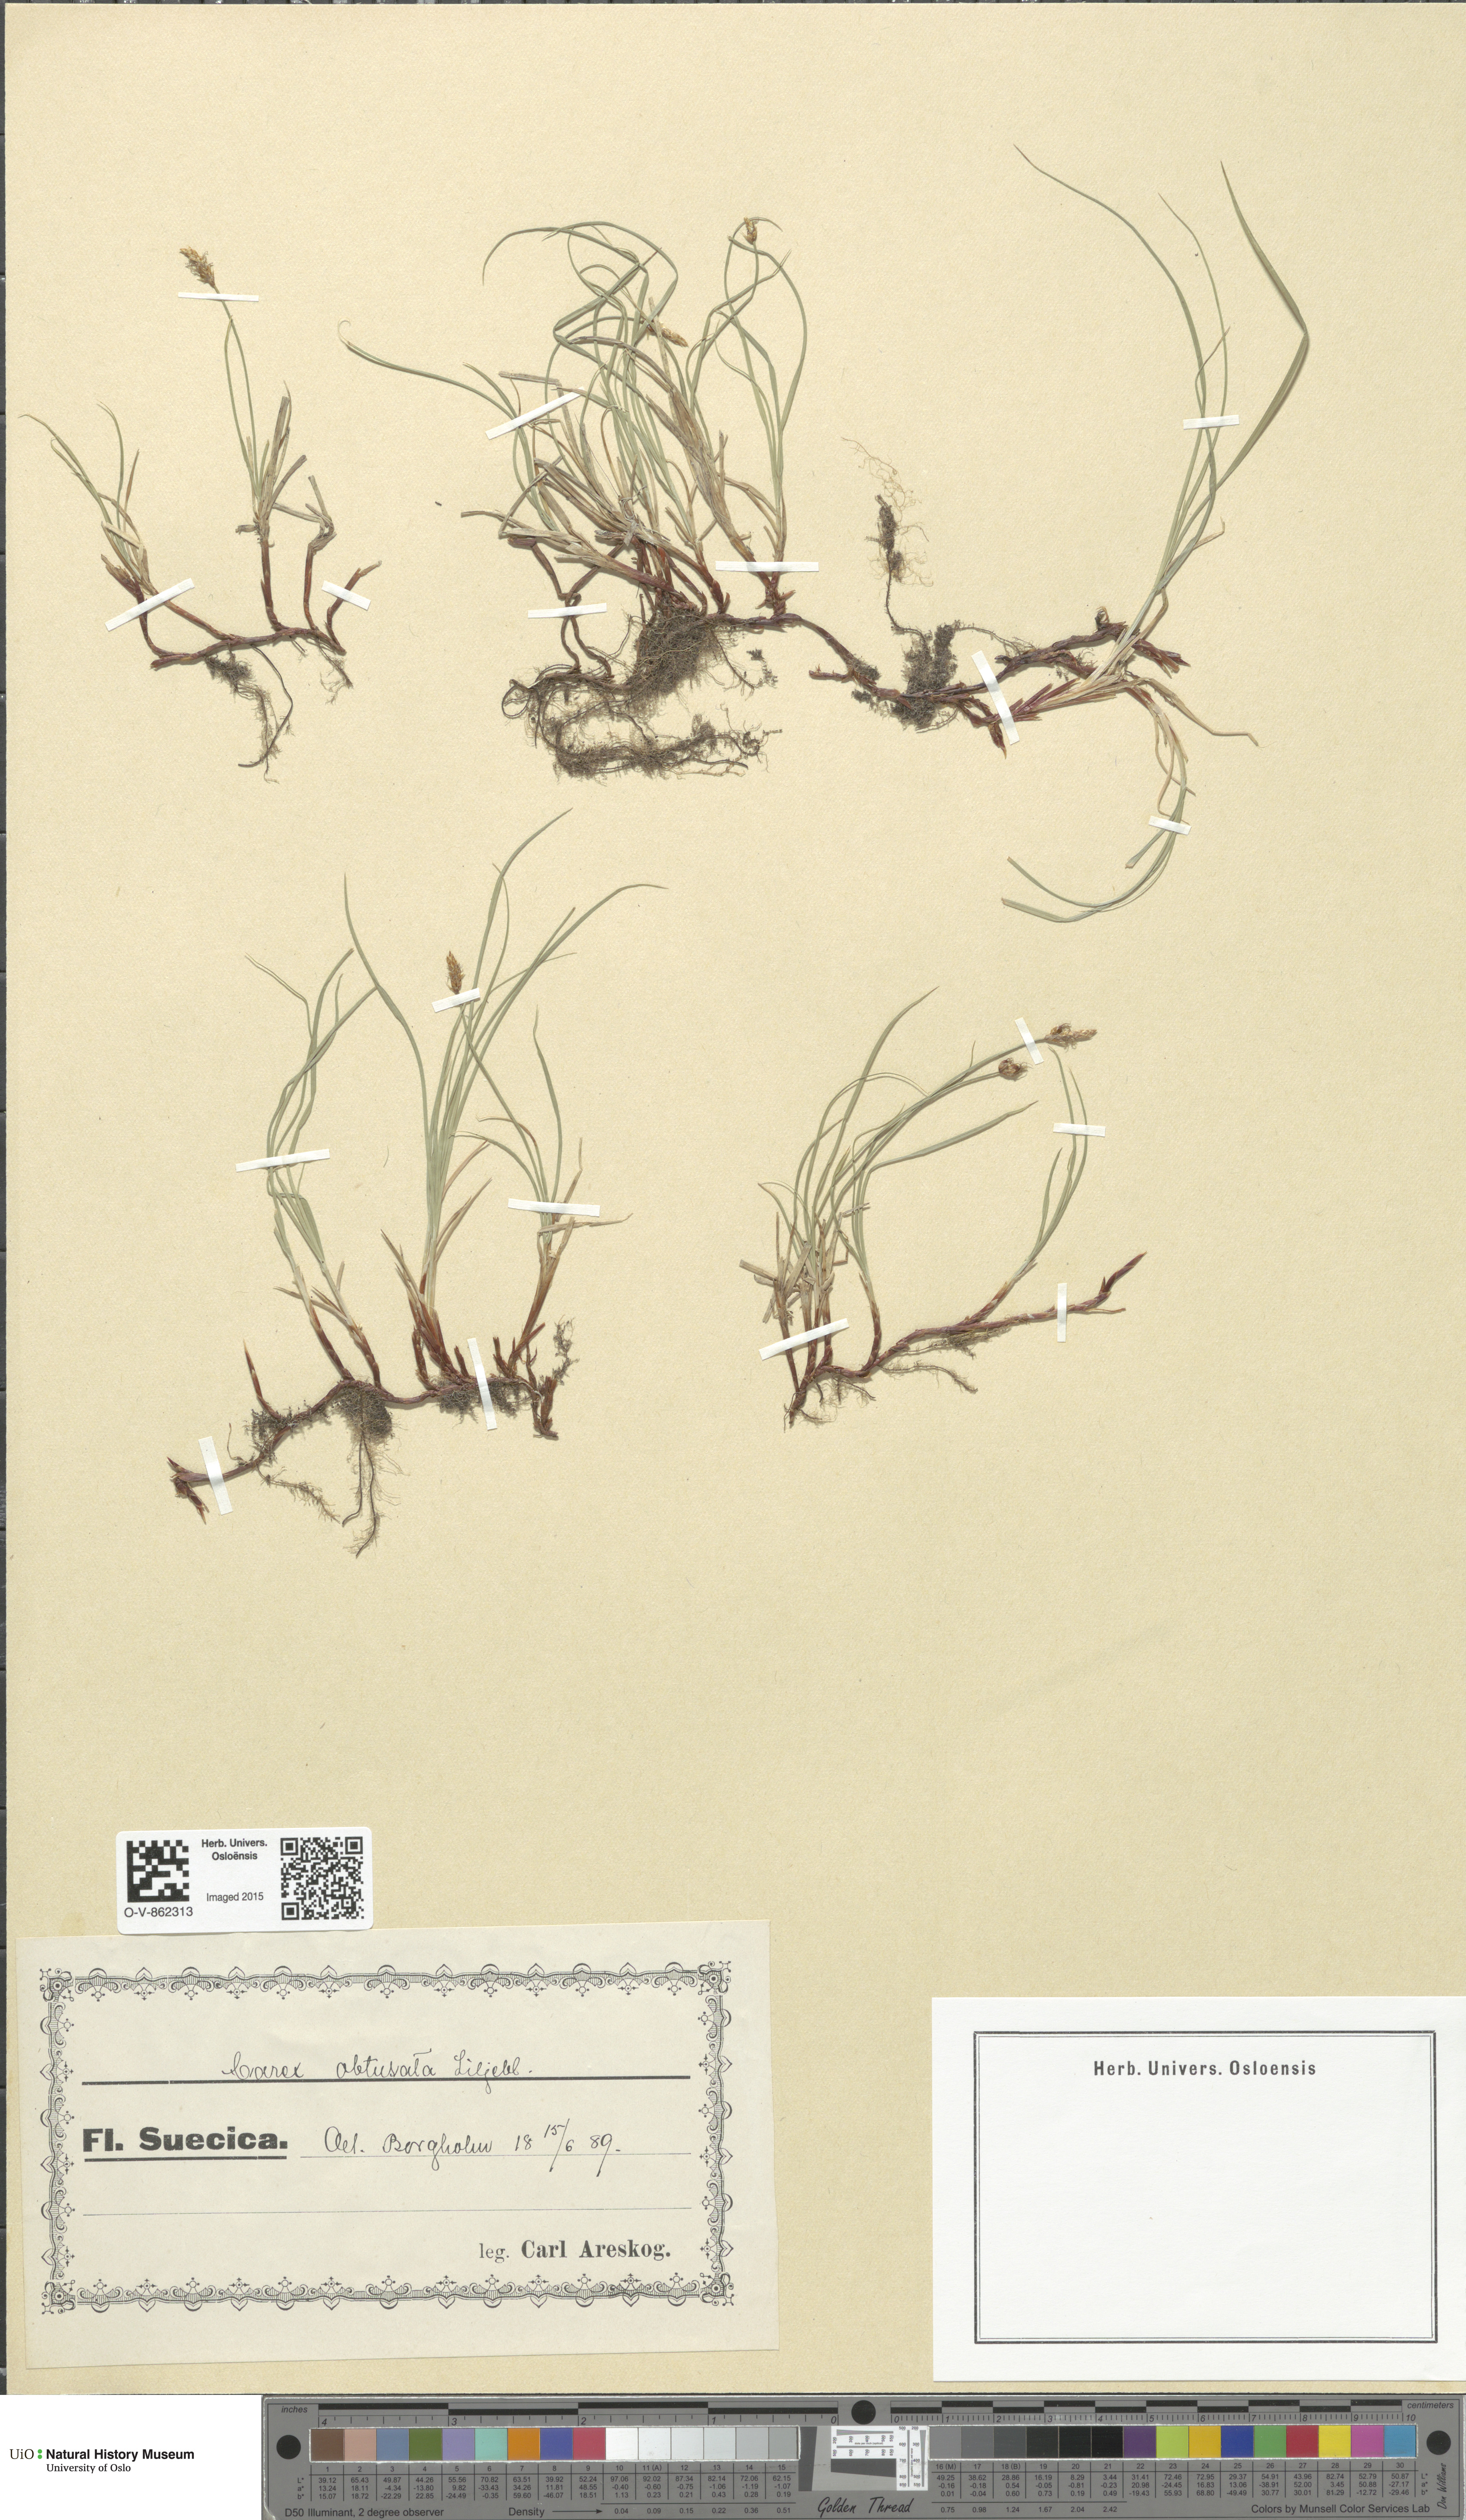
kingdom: Plantae
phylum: Tracheophyta
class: Liliopsida
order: Poales
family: Cyperaceae
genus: Carex
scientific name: Carex obtusata
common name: Blunt sedge
